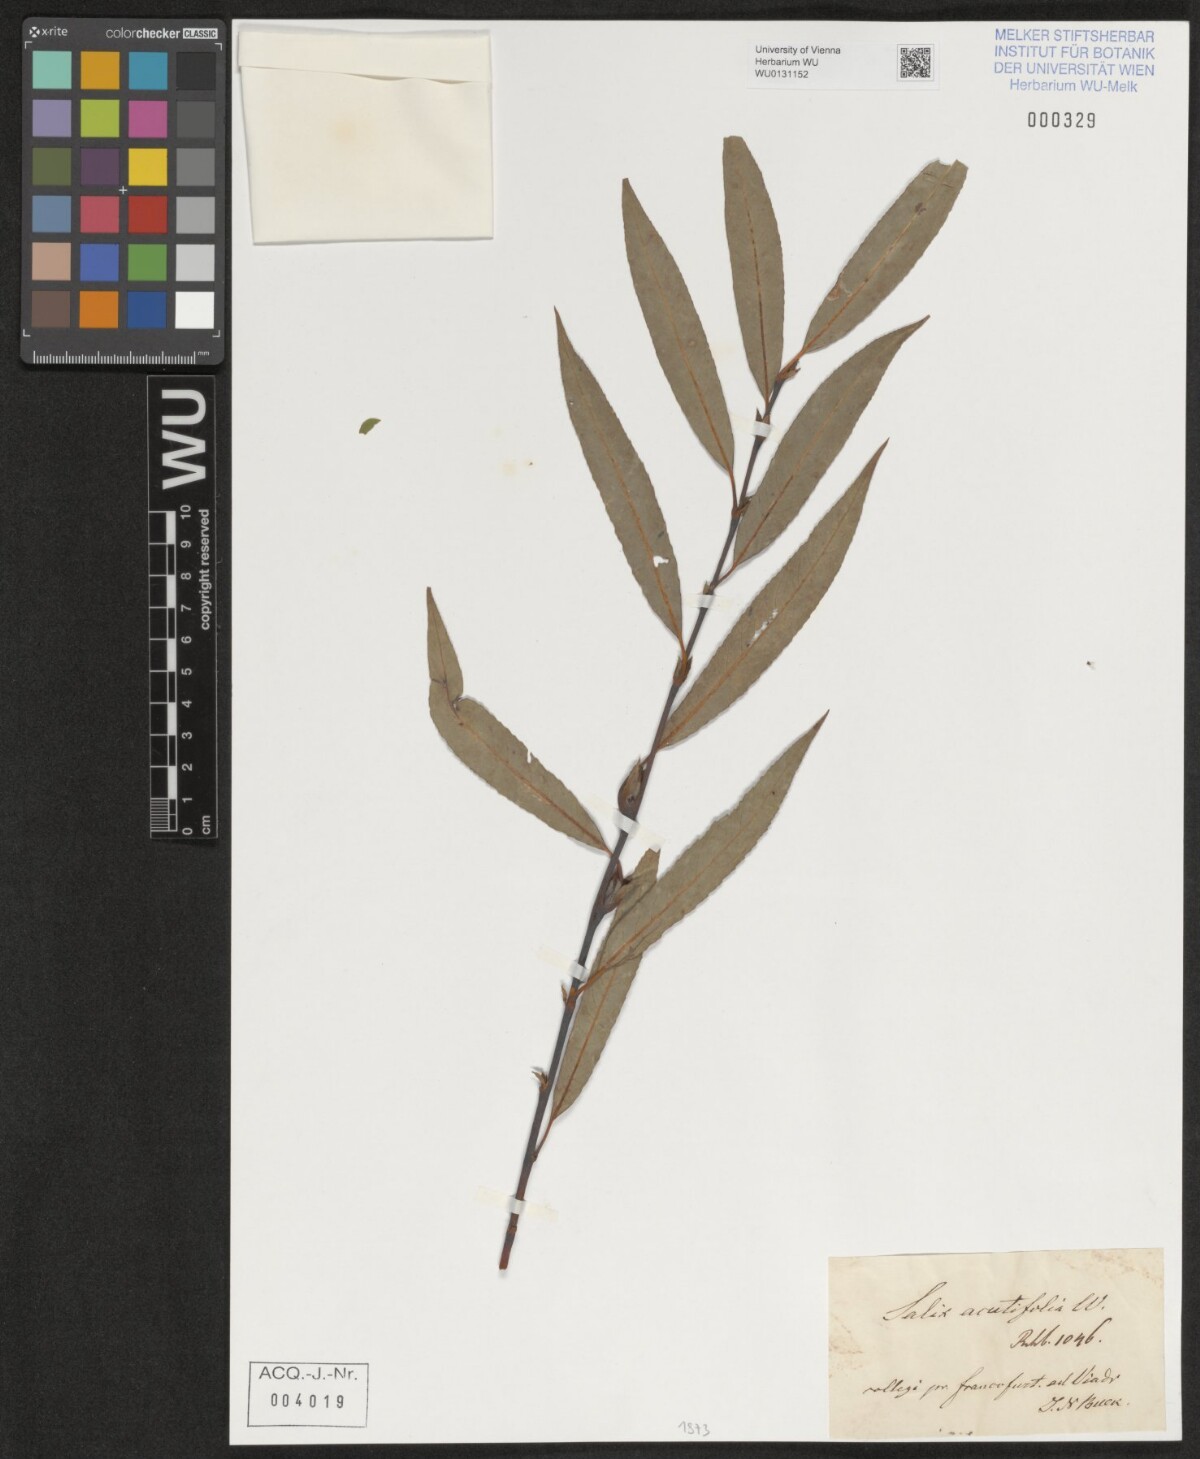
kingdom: Plantae
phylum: Tracheophyta
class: Magnoliopsida
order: Malpighiales
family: Salicaceae
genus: Salix
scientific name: Salix acutifolia
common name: Siberian violet-willow
